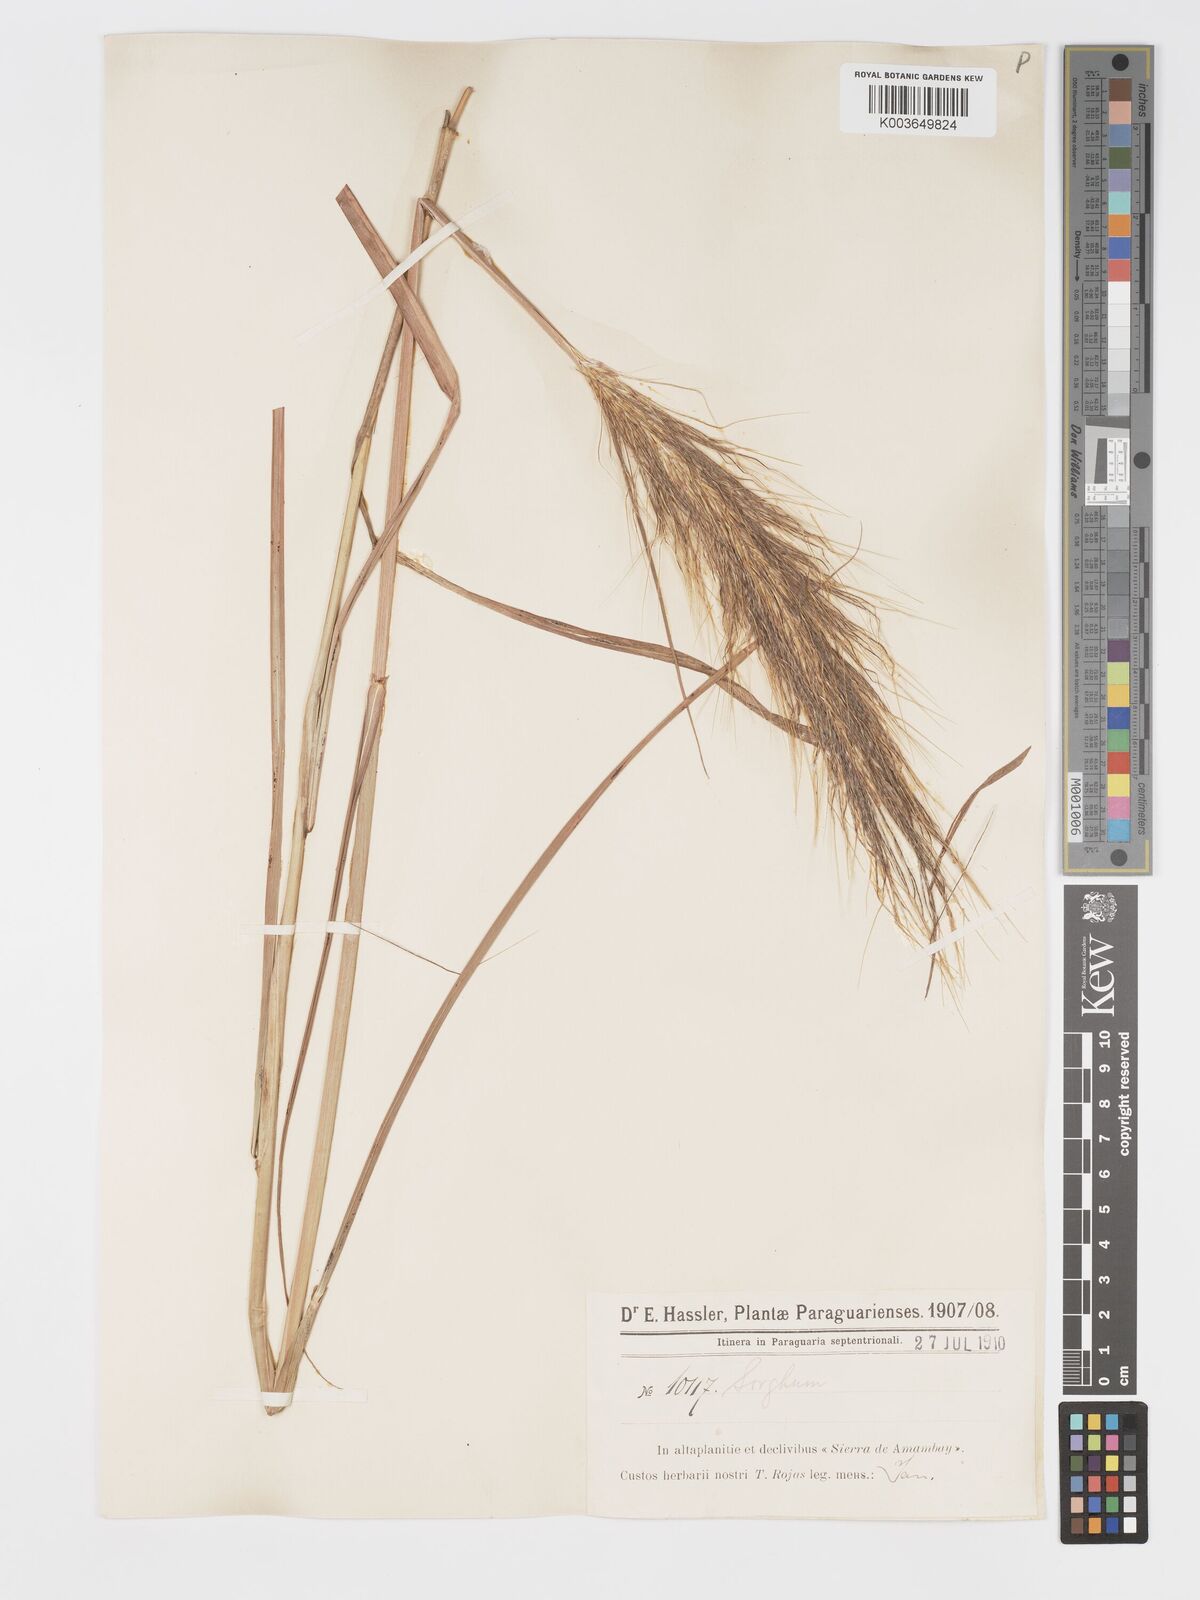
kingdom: Plantae
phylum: Tracheophyta
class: Liliopsida
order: Poales
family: Poaceae
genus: Sorghastrum
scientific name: Sorghastrum minarum
